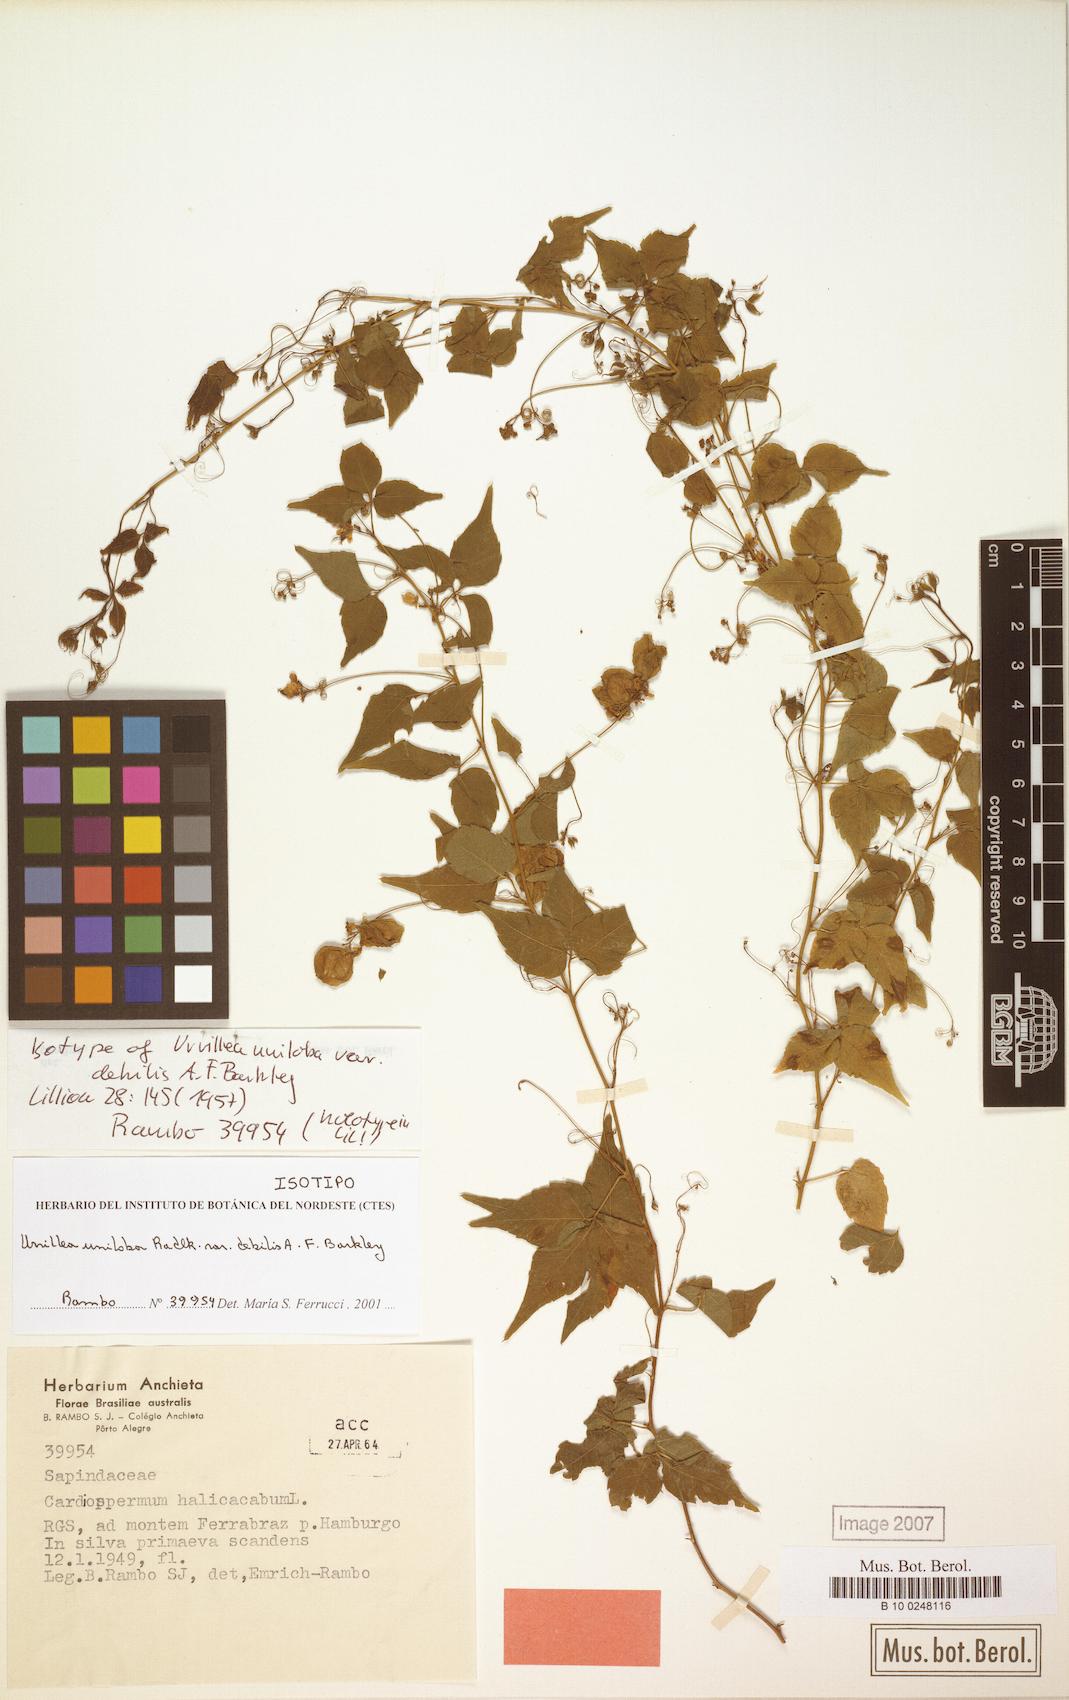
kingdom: Plantae
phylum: Tracheophyta
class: Magnoliopsida
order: Sapindales
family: Sapindaceae
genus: Urvillea
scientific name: Urvillea uniloba
